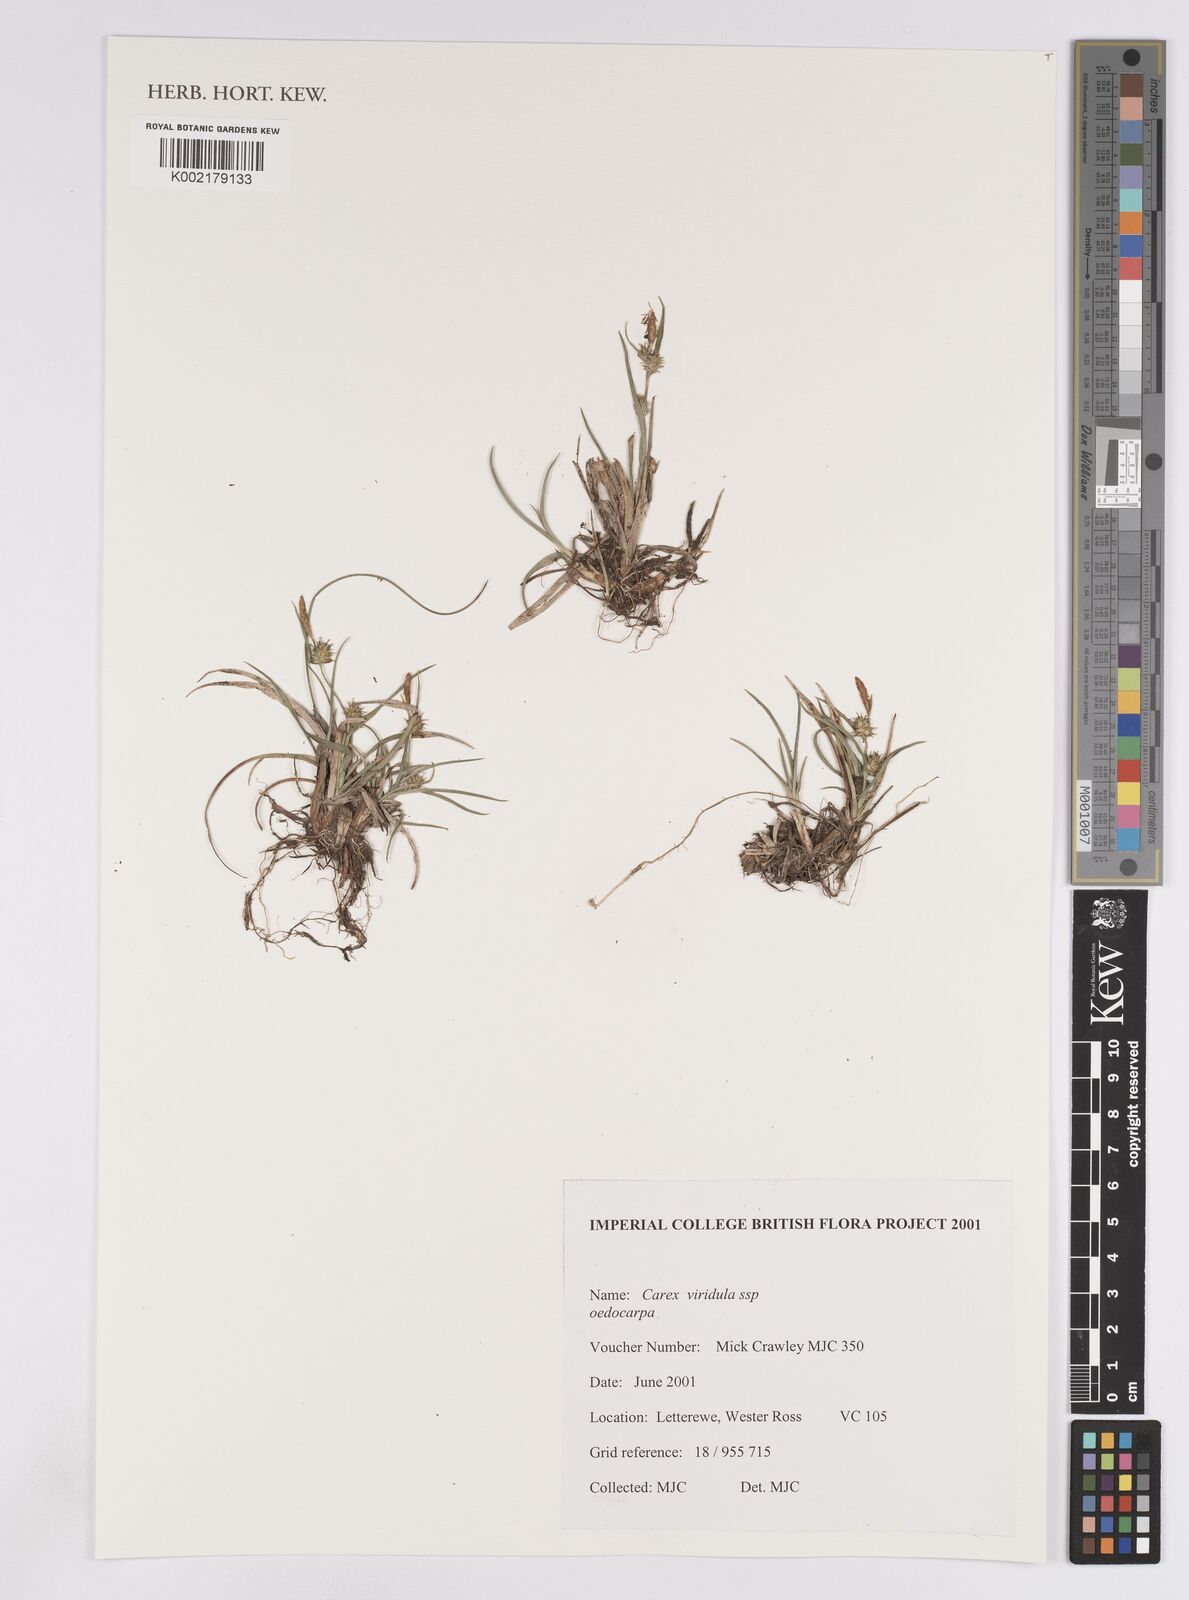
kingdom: Plantae
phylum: Tracheophyta
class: Liliopsida
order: Poales
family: Cyperaceae
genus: Carex
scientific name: Carex demissa
